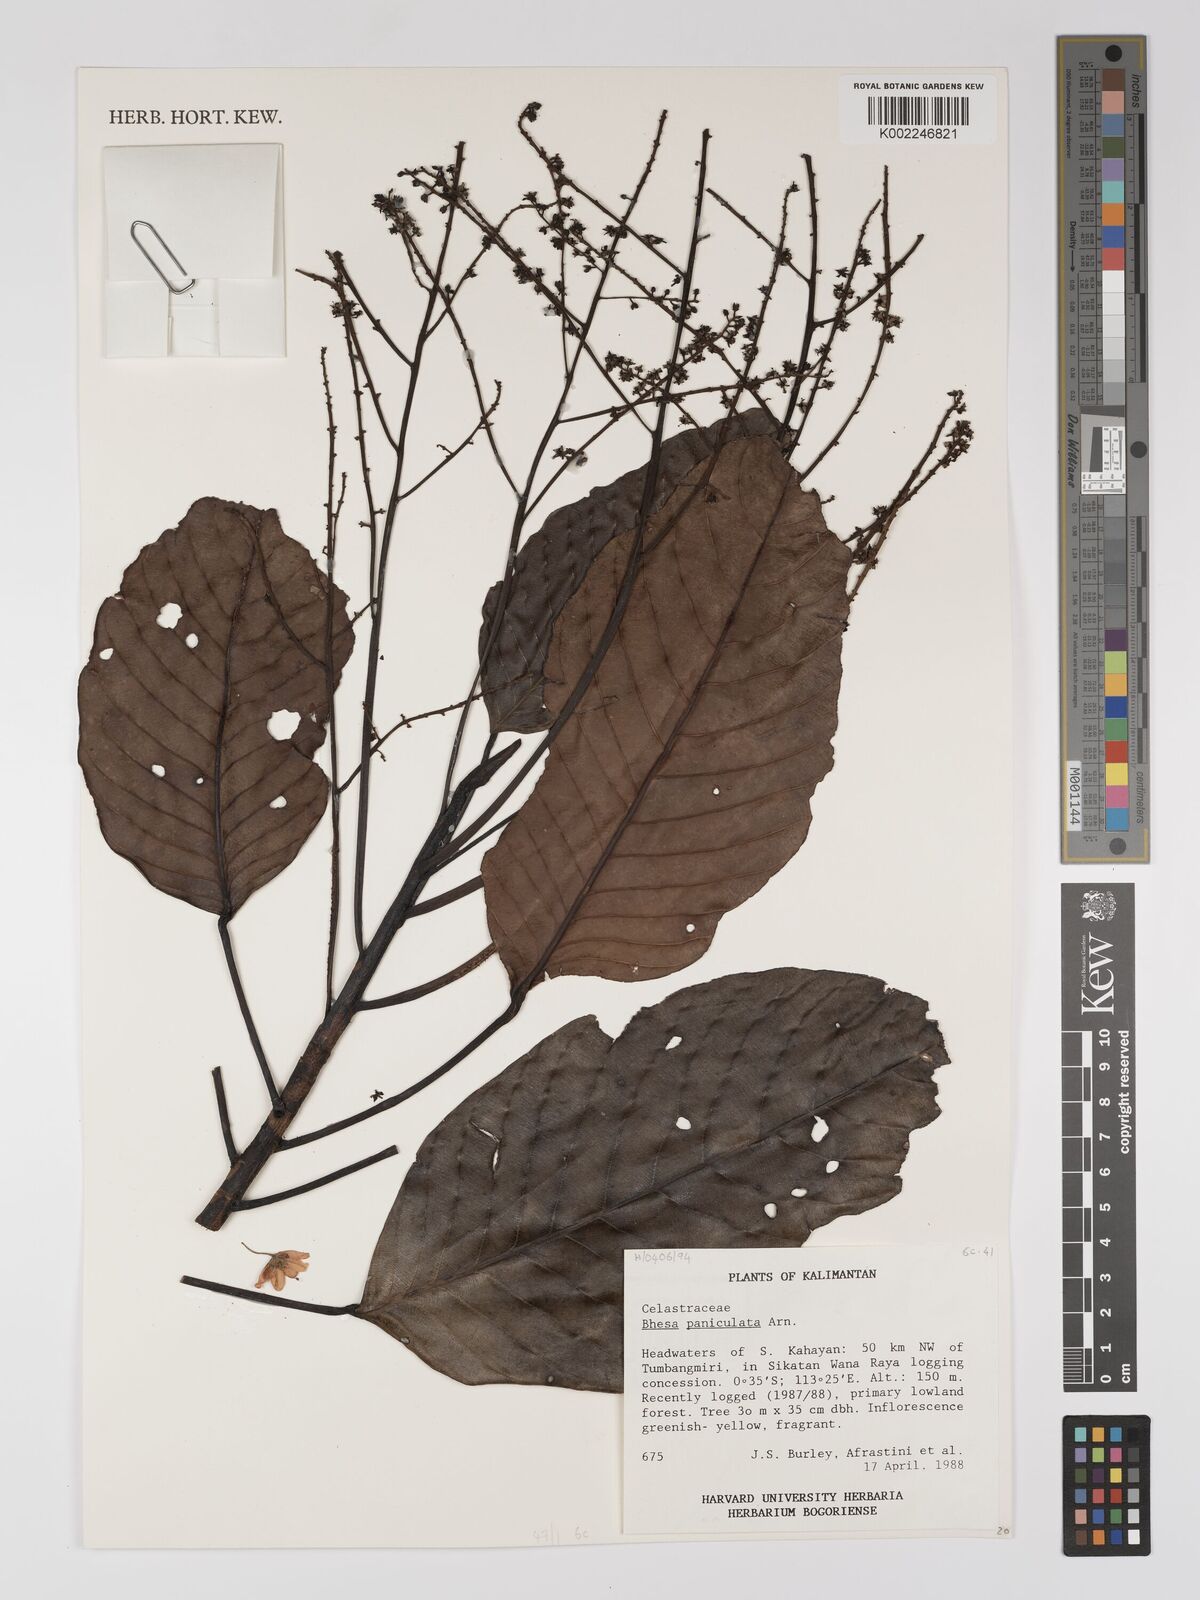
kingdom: Plantae
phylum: Tracheophyta
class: Magnoliopsida
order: Malpighiales
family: Centroplacaceae
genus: Bhesa
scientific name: Bhesa paniculata
